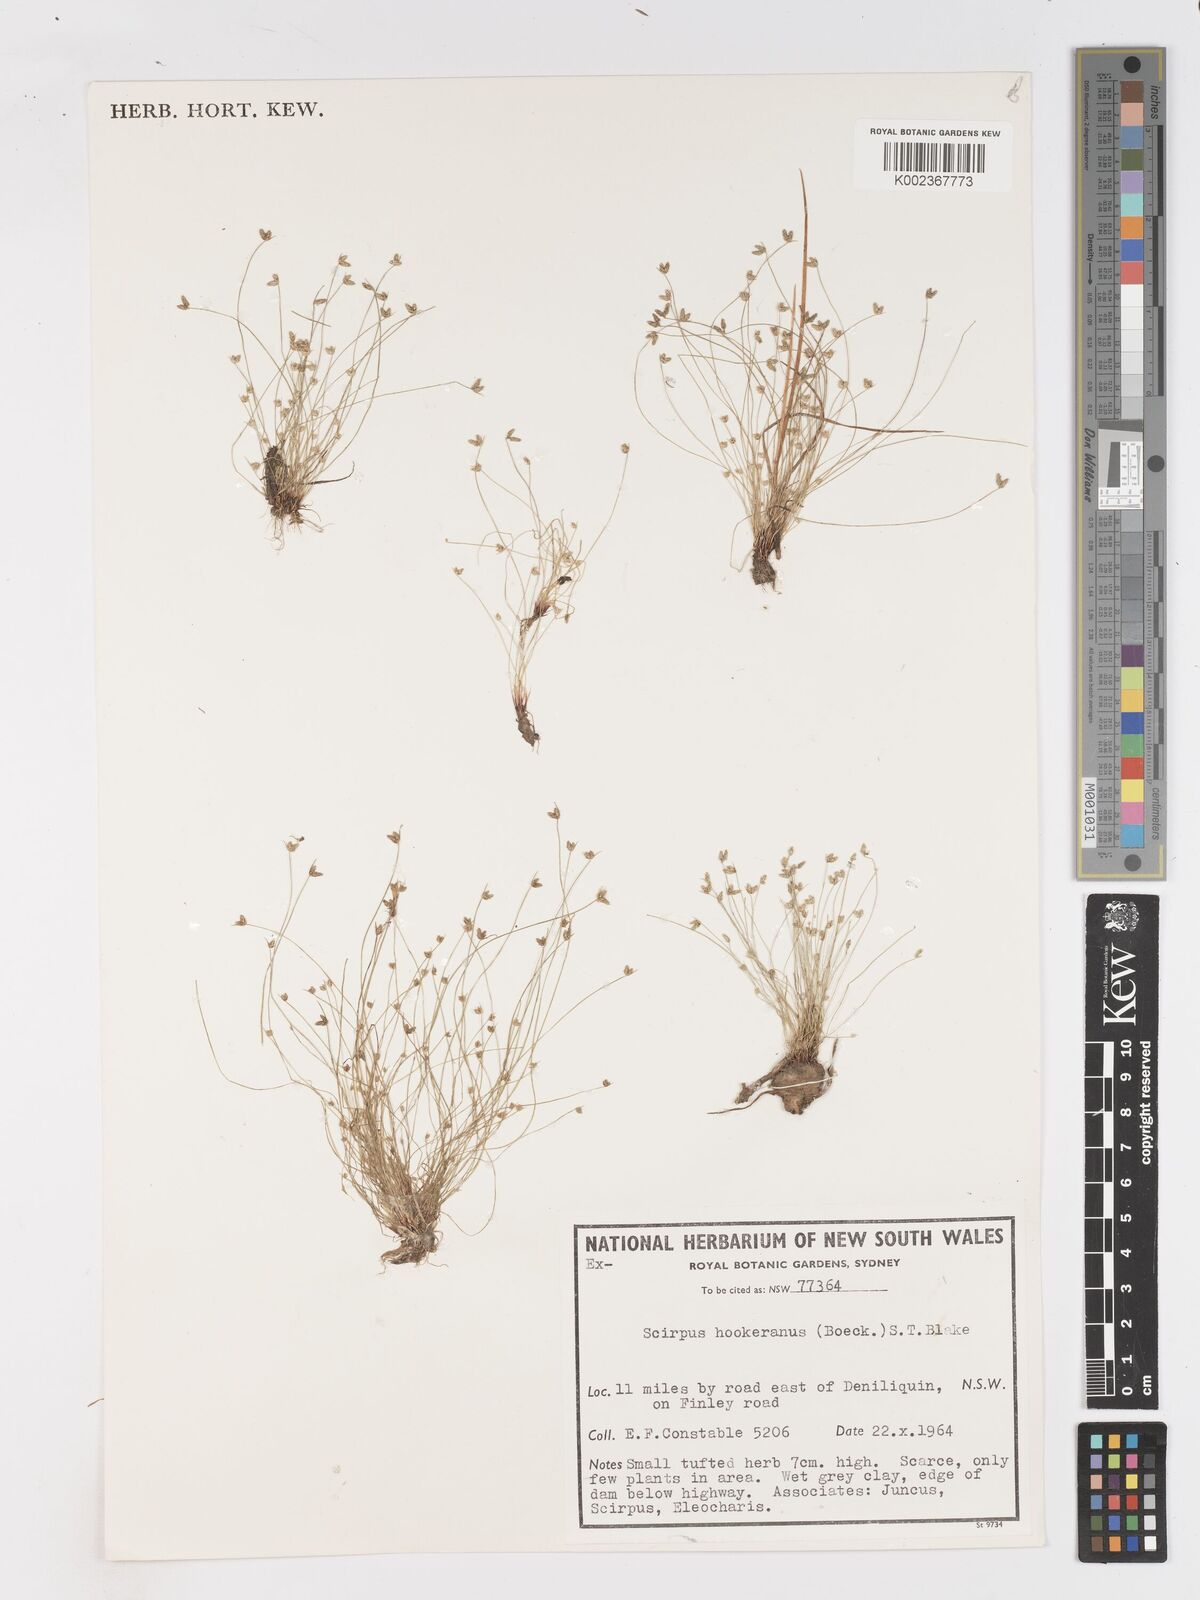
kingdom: Plantae
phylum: Tracheophyta
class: Liliopsida
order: Poales
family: Cyperaceae
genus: Isolepis
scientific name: Isolepis multicaulis
